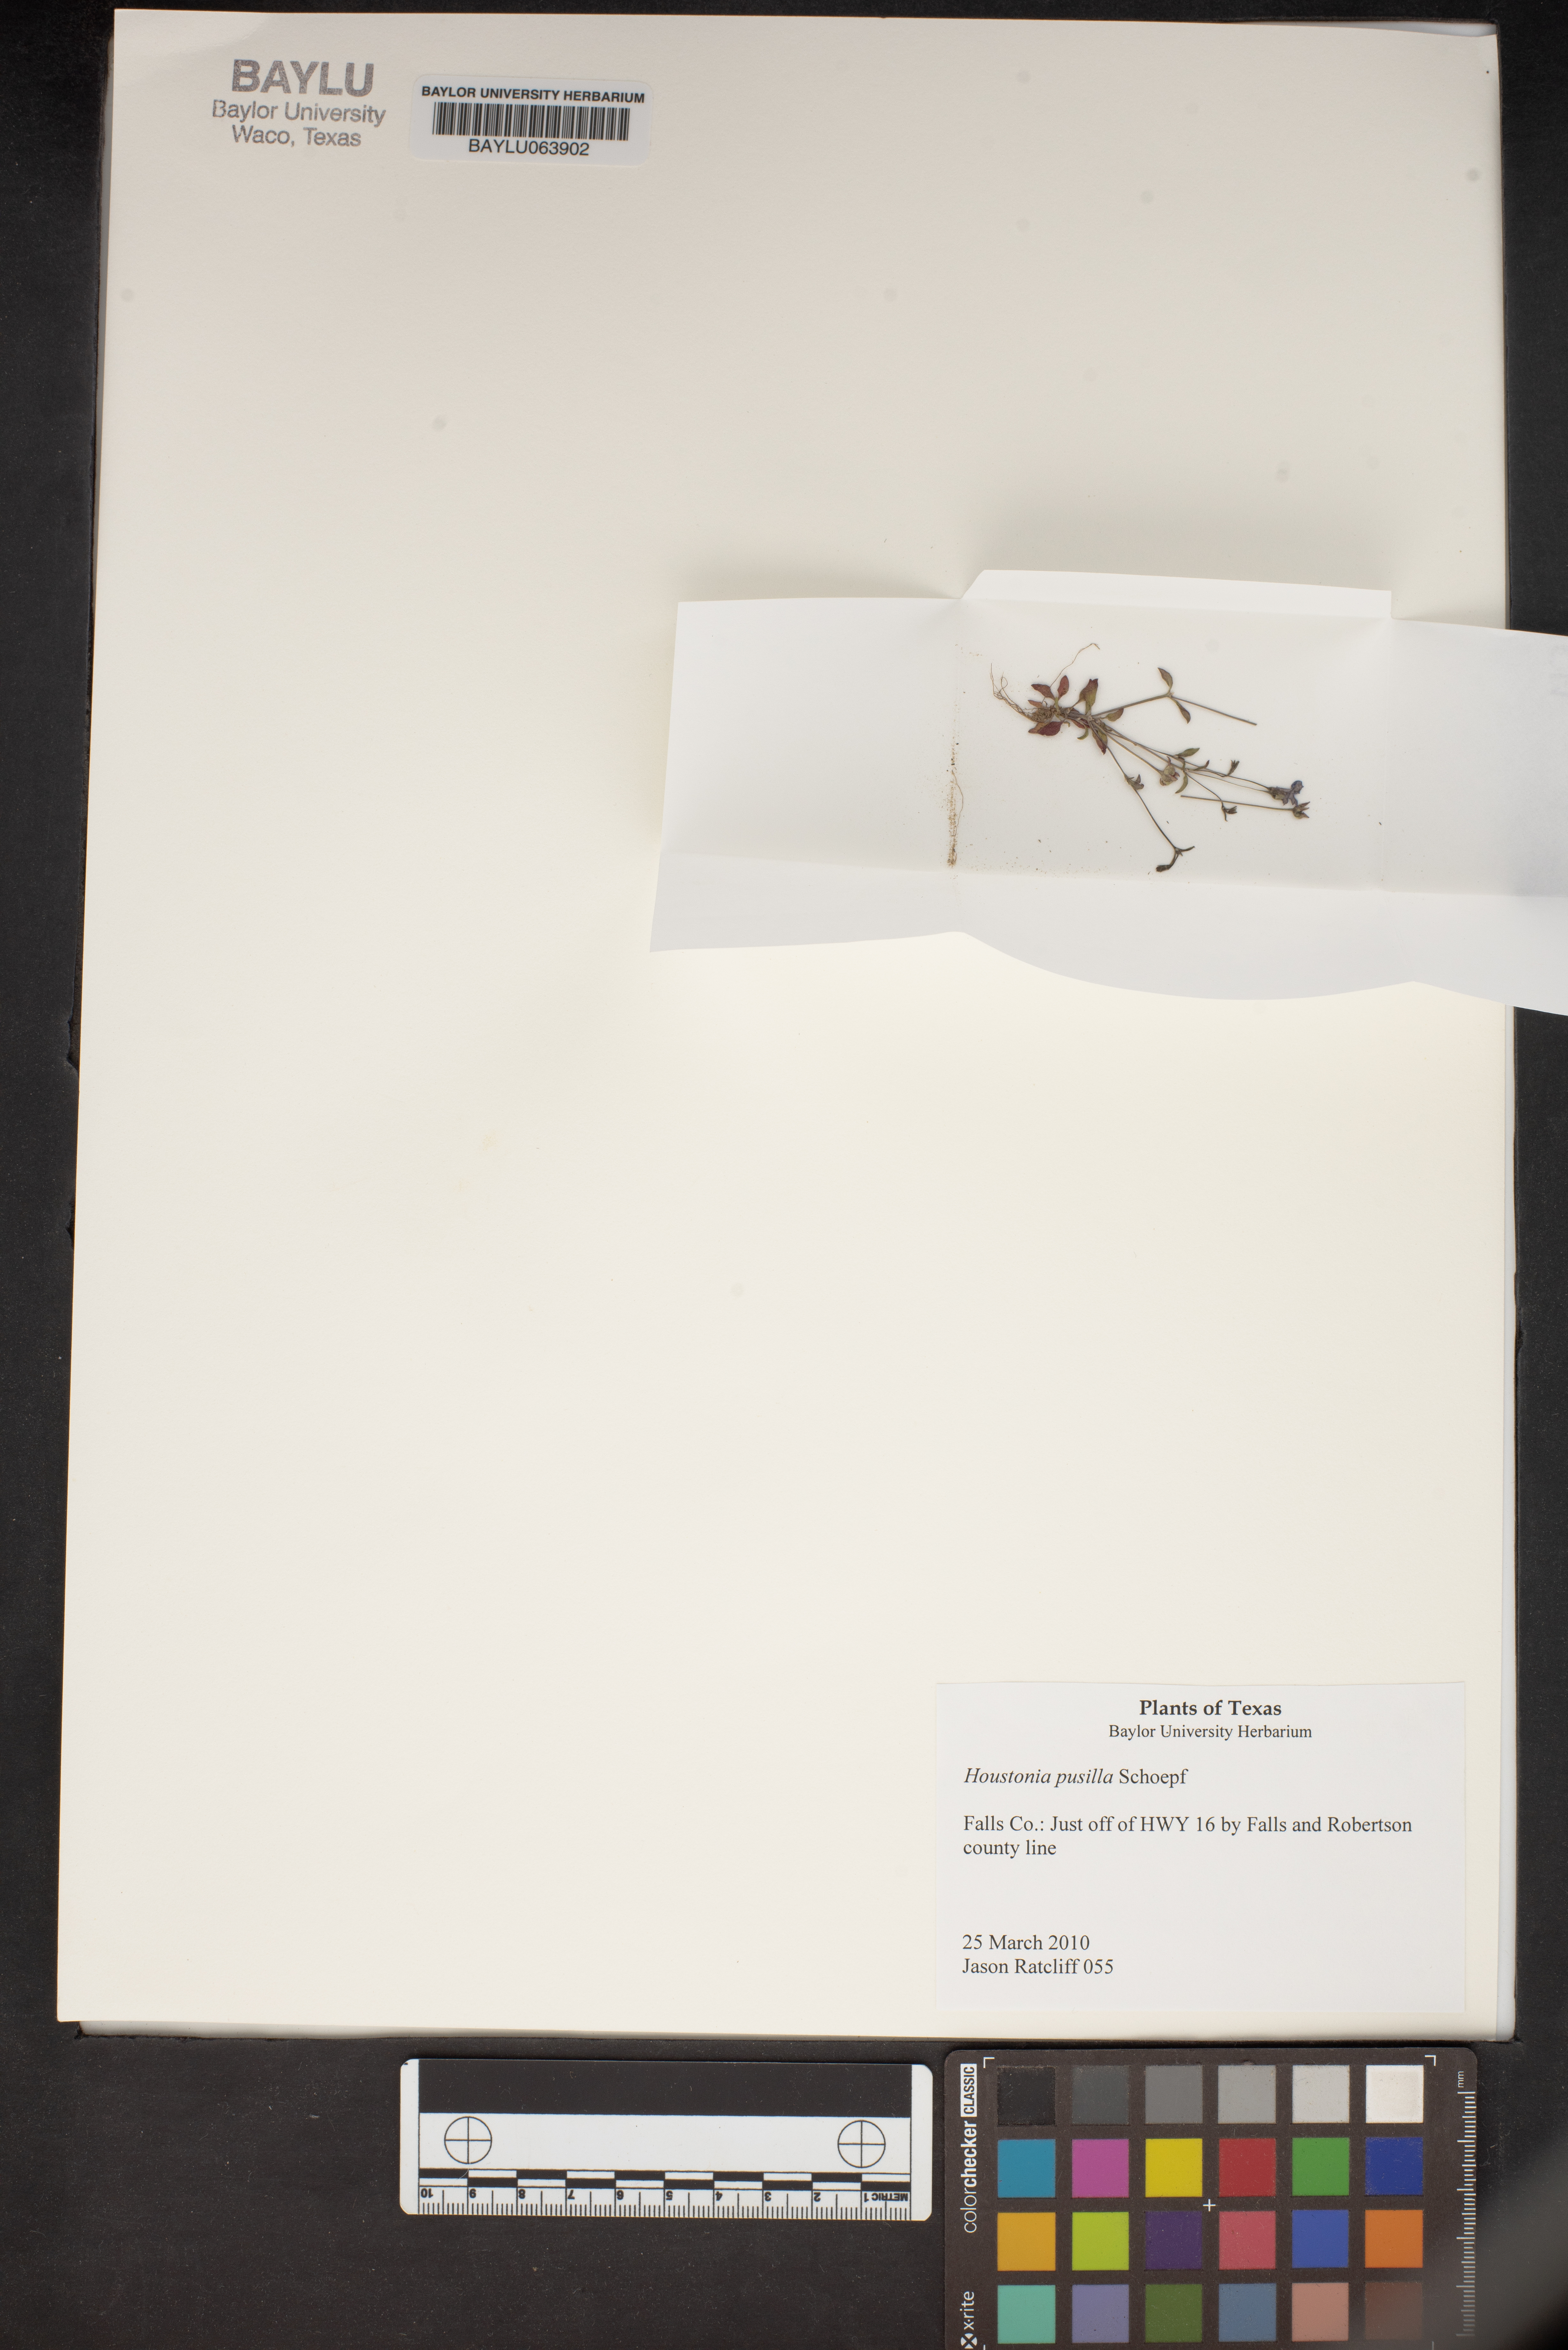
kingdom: Plantae
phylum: Tracheophyta
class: Magnoliopsida
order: Gentianales
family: Rubiaceae
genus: Houstonia
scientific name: Houstonia pusilla
